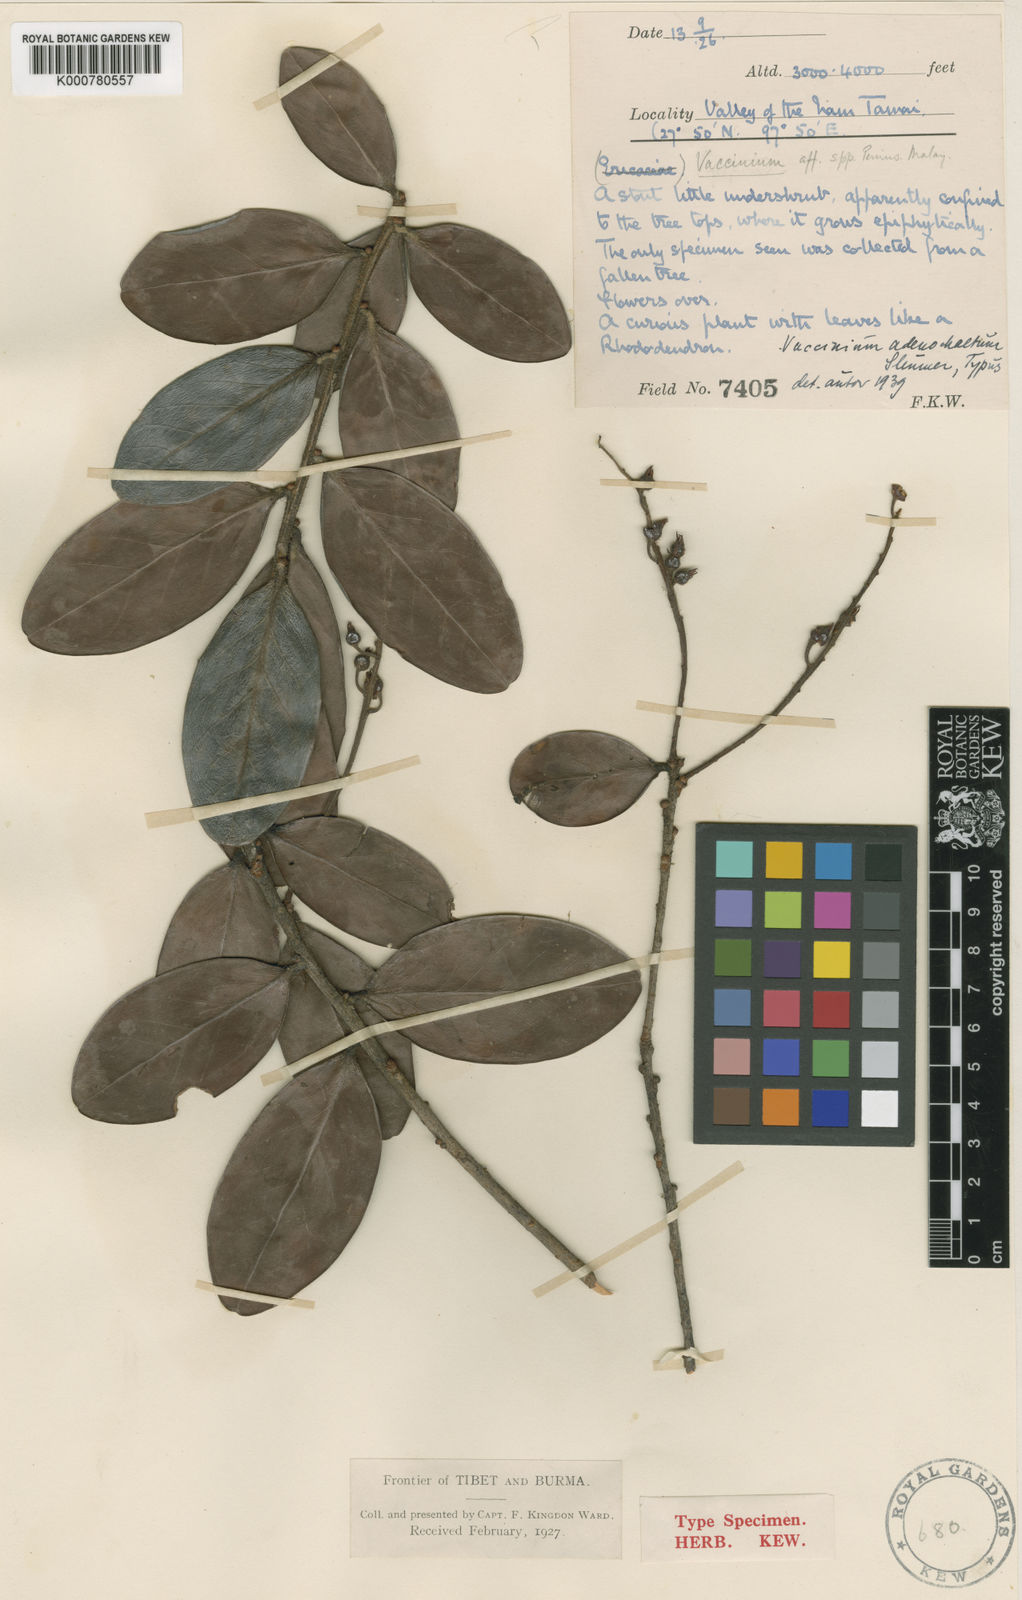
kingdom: Plantae
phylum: Tracheophyta
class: Magnoliopsida
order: Ericales
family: Ericaceae
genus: Vaccinium
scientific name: Vaccinium adenochaetum
